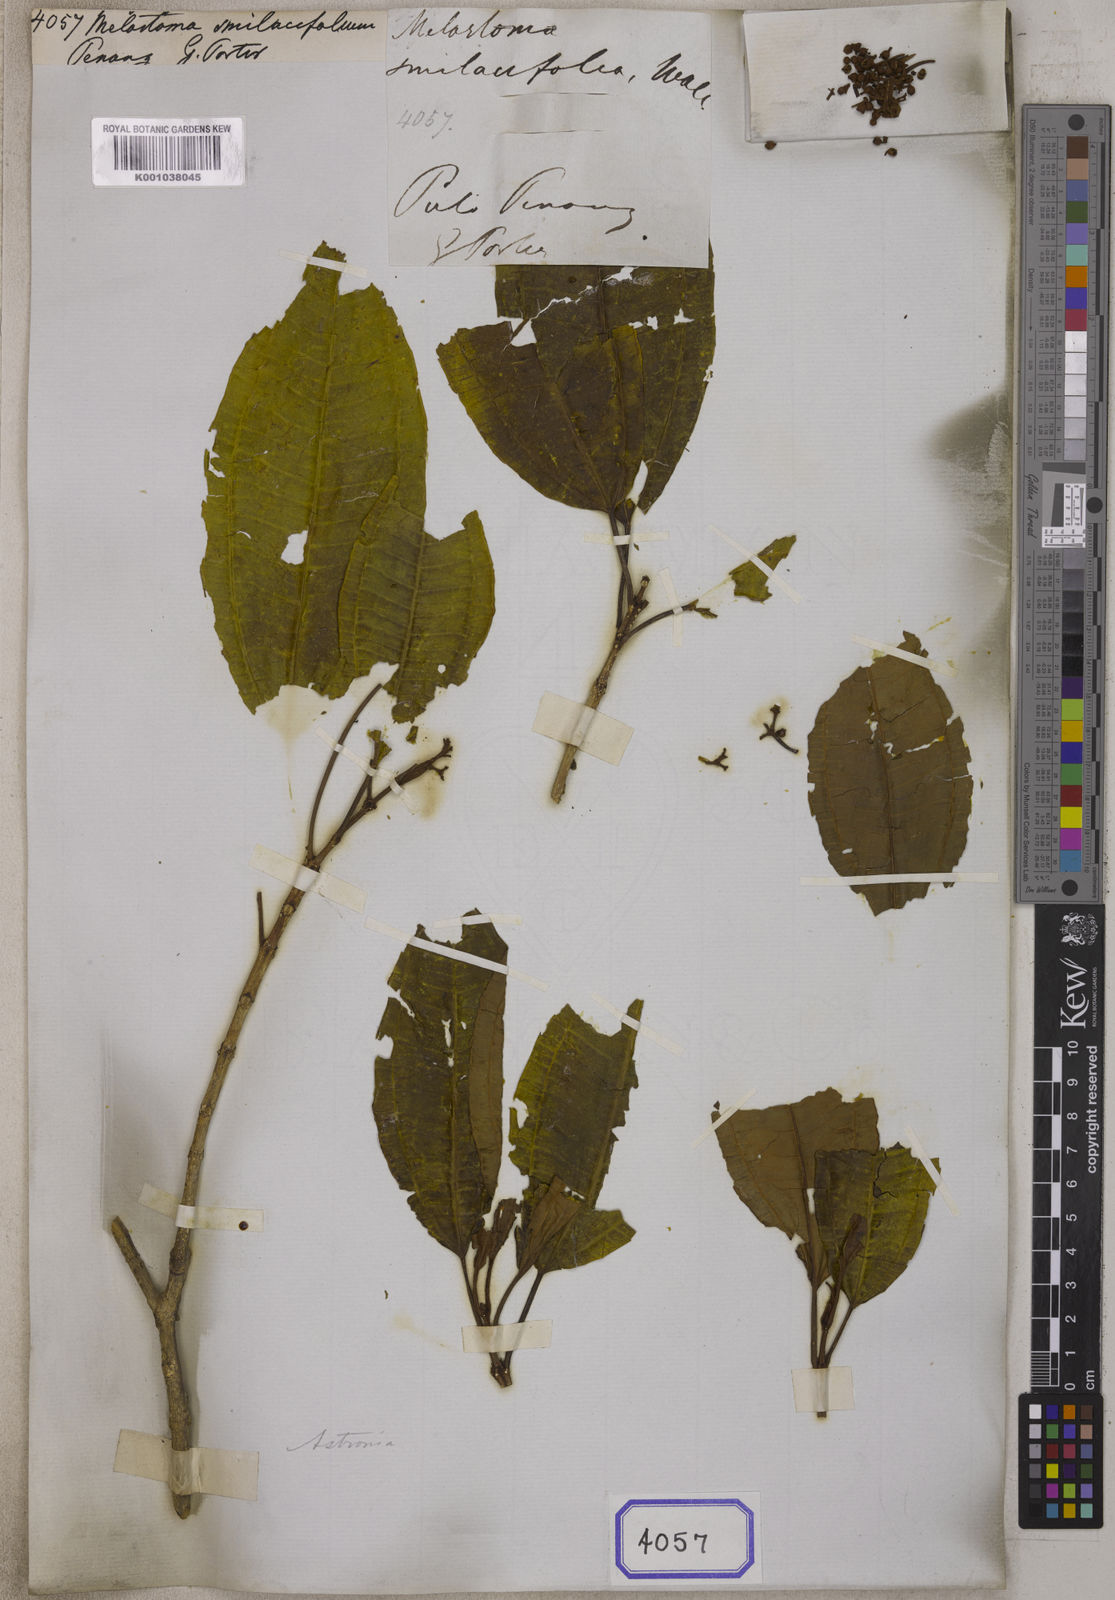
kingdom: Plantae
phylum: Tracheophyta
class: Magnoliopsida
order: Myrtales
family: Melastomataceae
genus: Astronia
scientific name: Astronia smilacifolia
